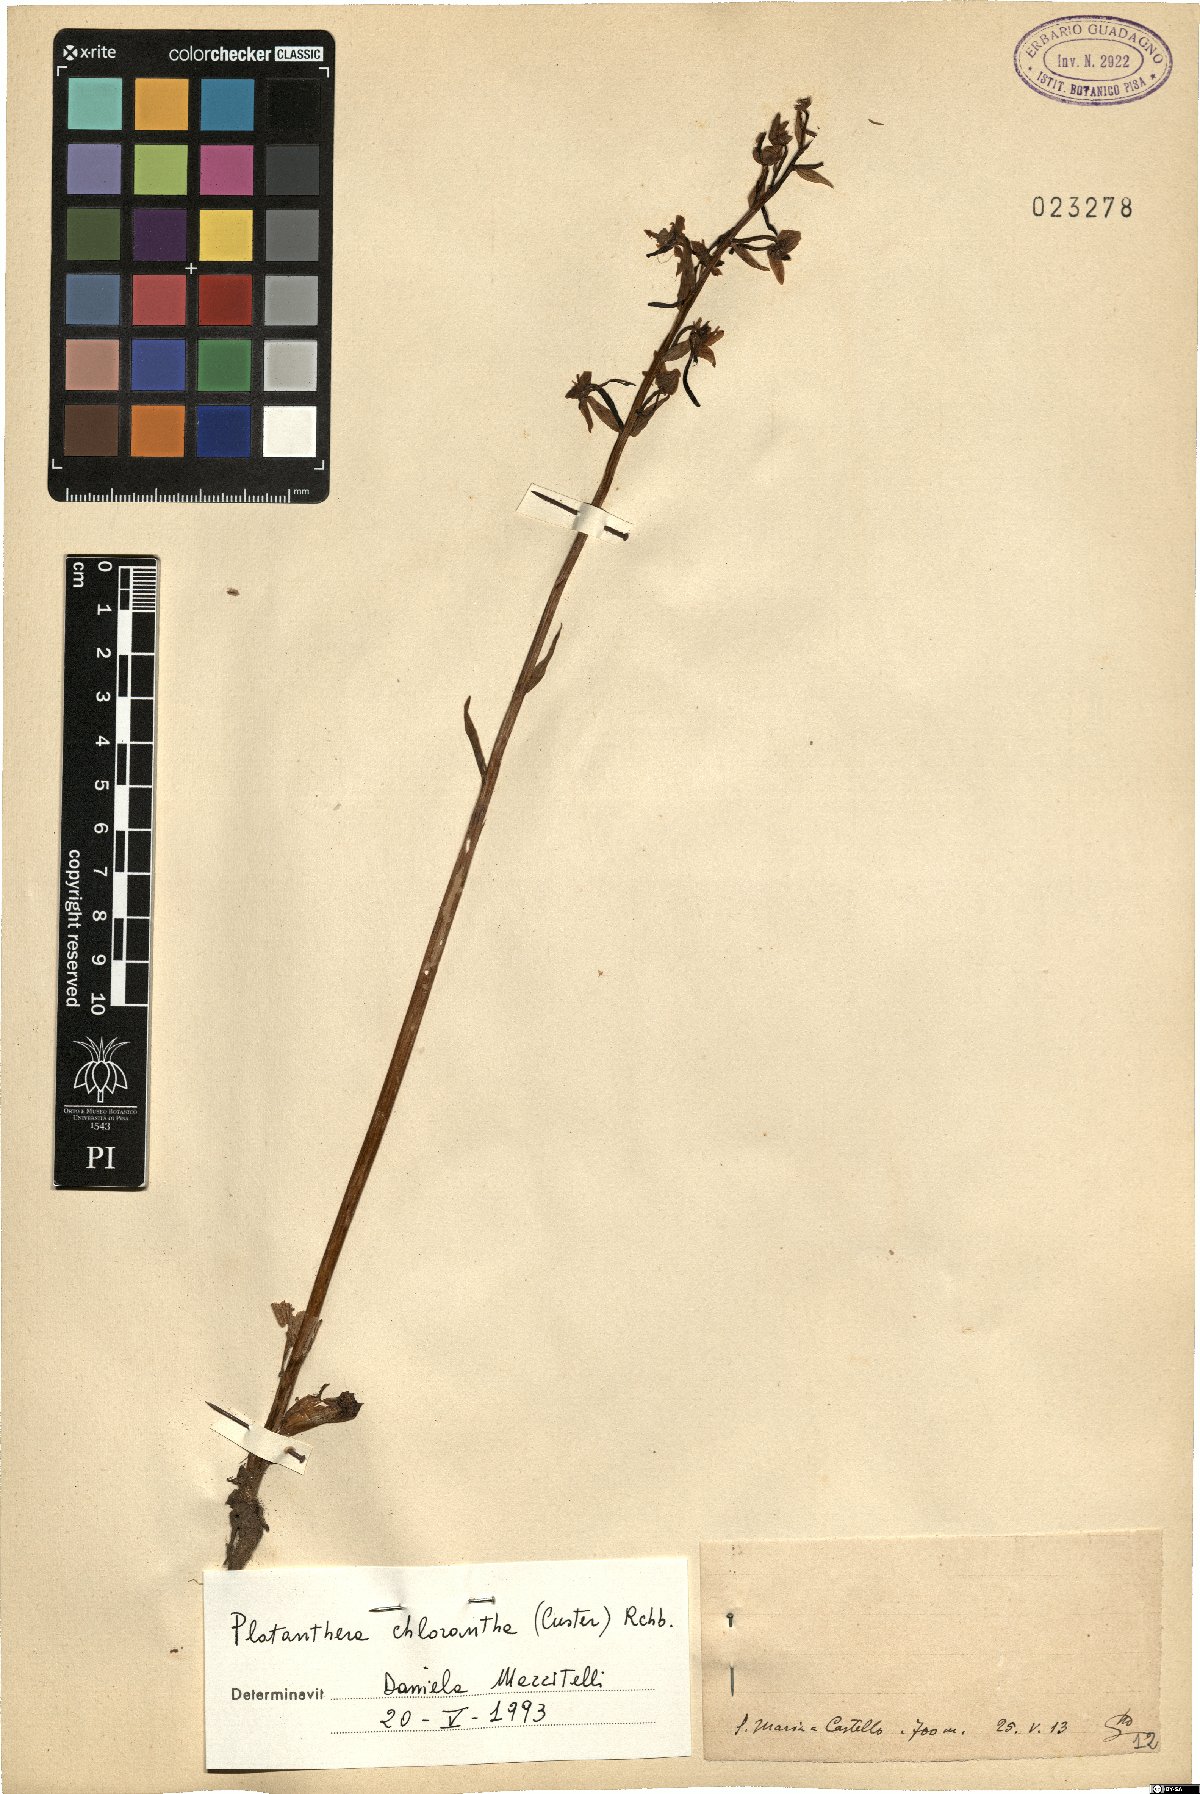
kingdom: Plantae
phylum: Tracheophyta
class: Liliopsida
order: Asparagales
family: Orchidaceae
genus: Platanthera
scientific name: Platanthera chlorantha
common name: Greater butterfly-orchid
